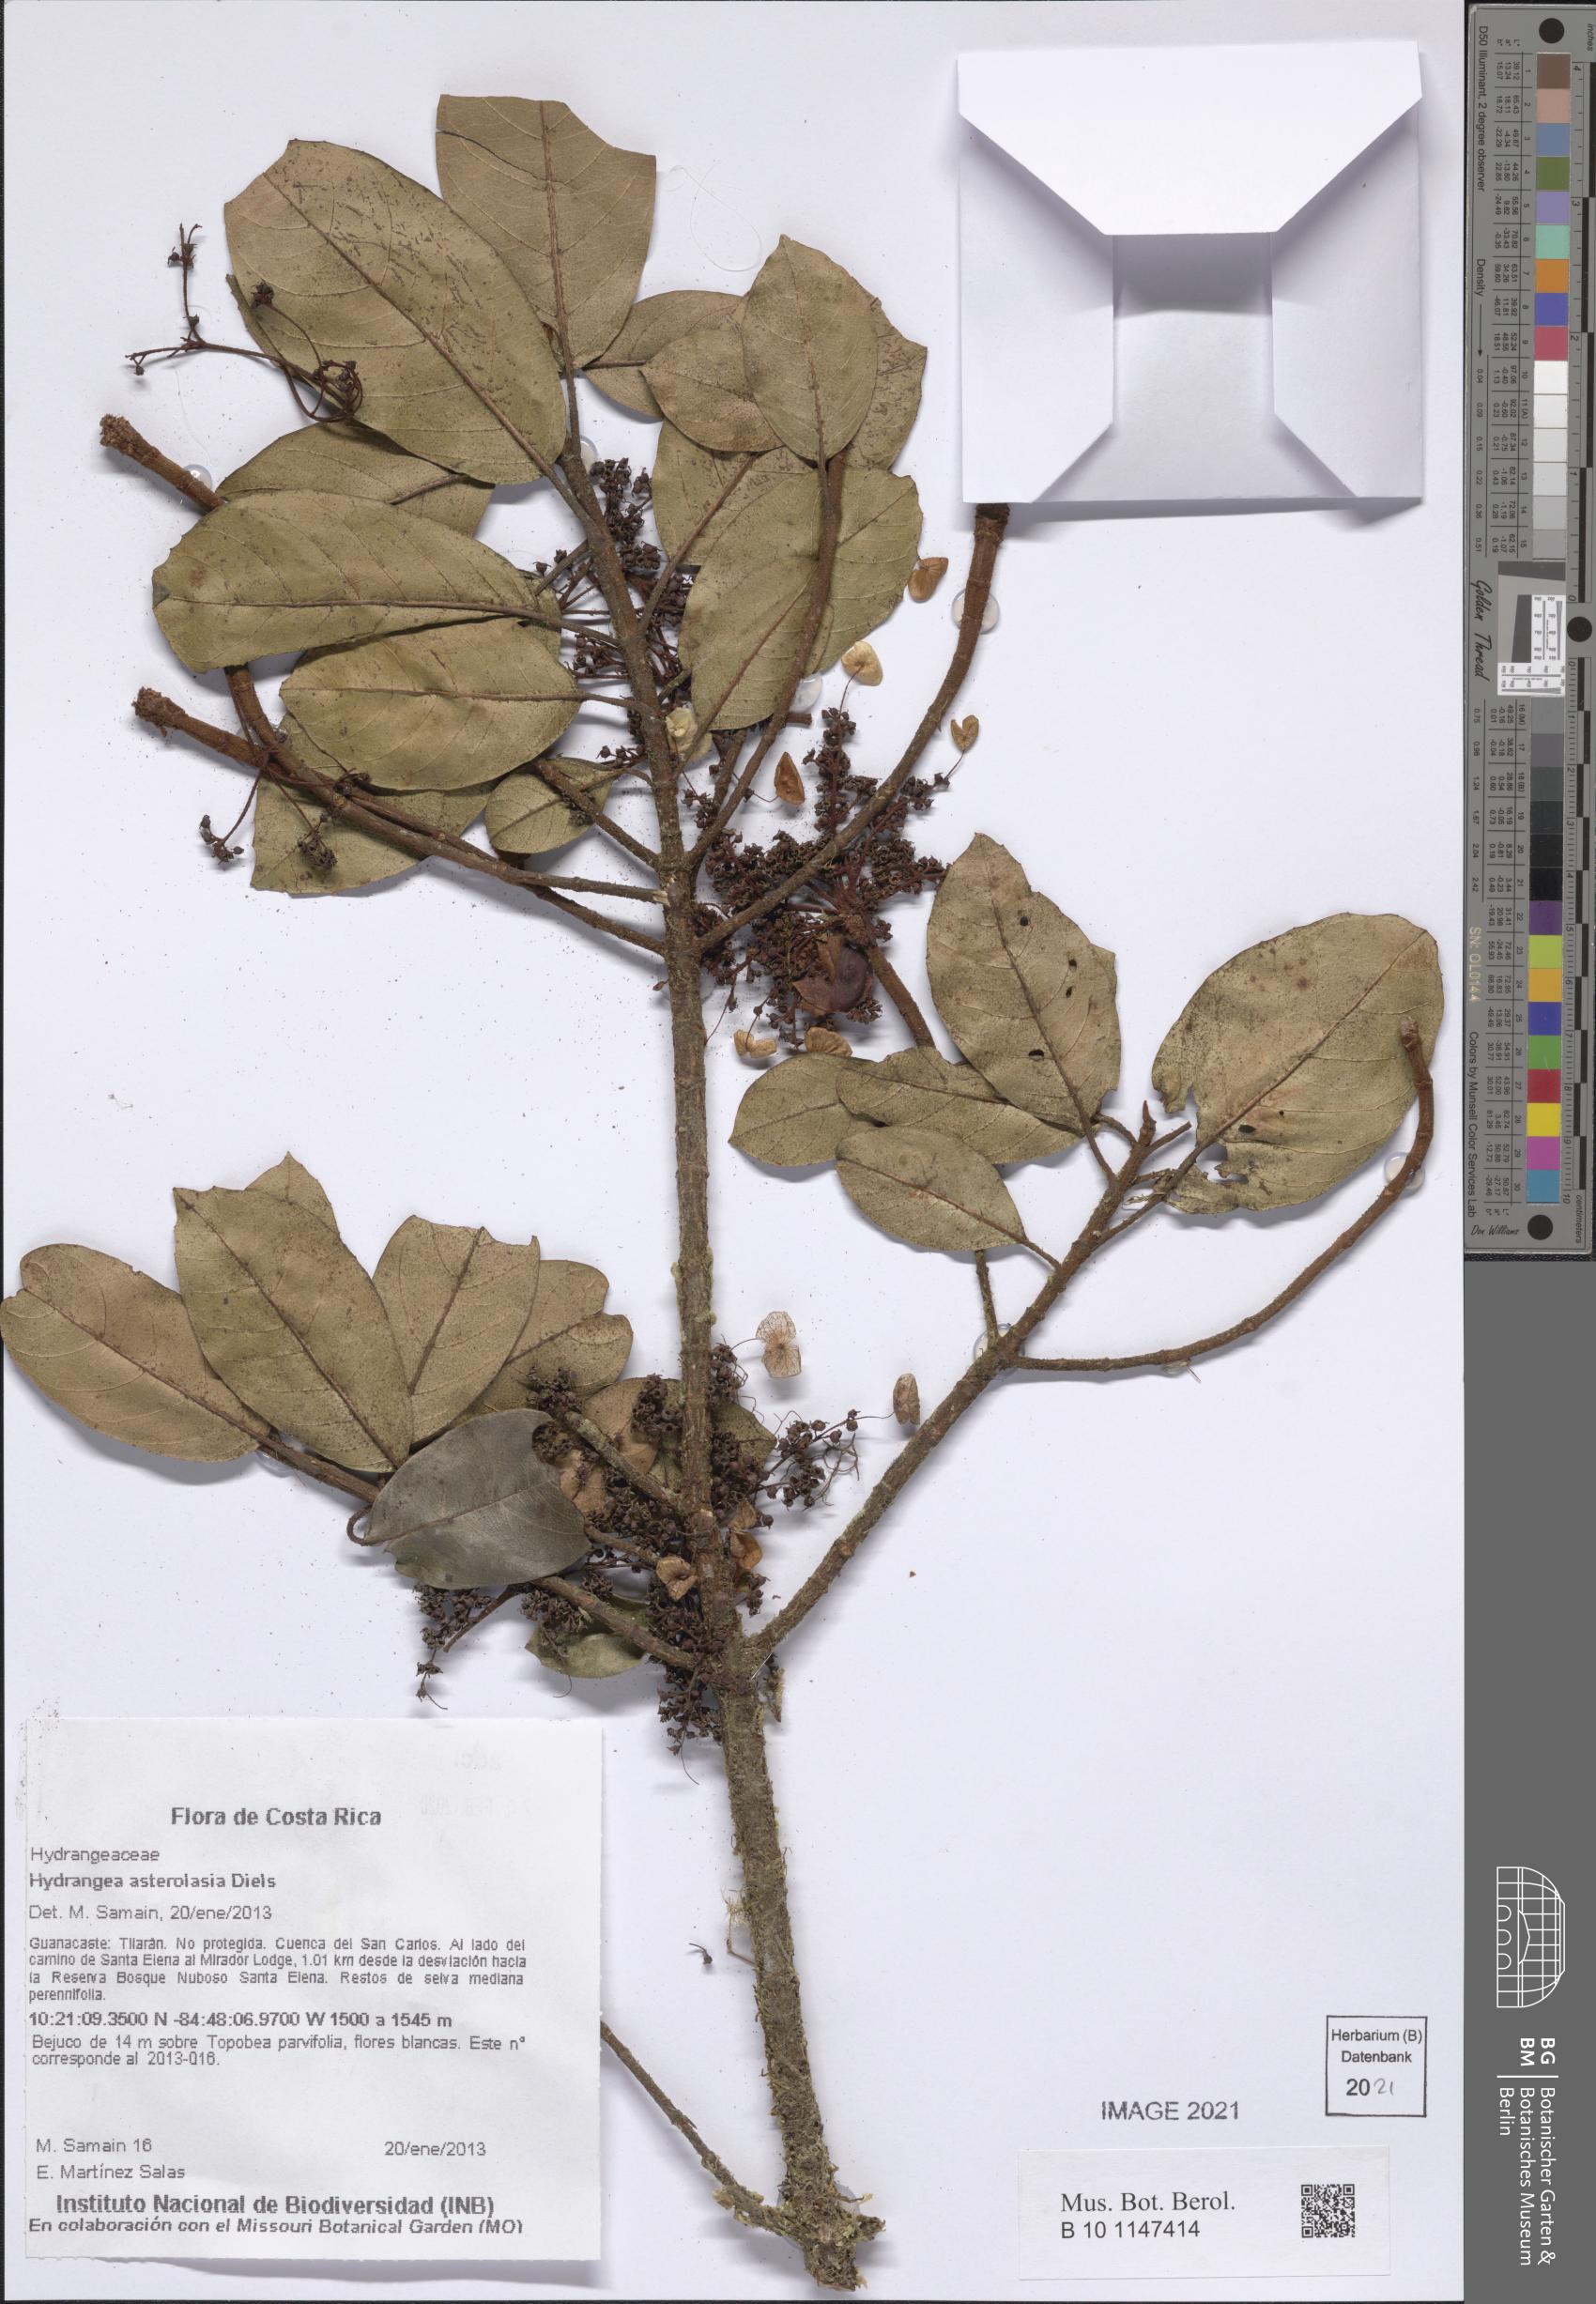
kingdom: Plantae
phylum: Tracheophyta
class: Magnoliopsida
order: Cornales
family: Hydrangeaceae
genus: Hydrangea
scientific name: Hydrangea asterolasia
